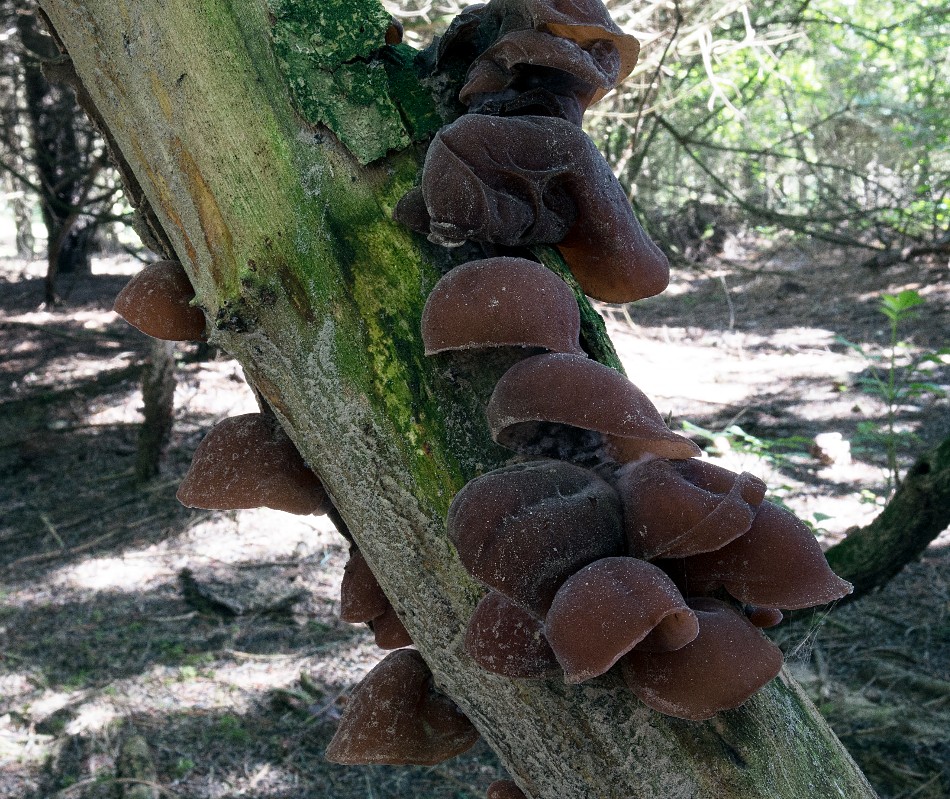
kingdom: Fungi
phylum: Basidiomycota
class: Agaricomycetes
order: Auriculariales
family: Auriculariaceae
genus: Auricularia
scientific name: Auricularia auricula-judae
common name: almindelig judasøre
